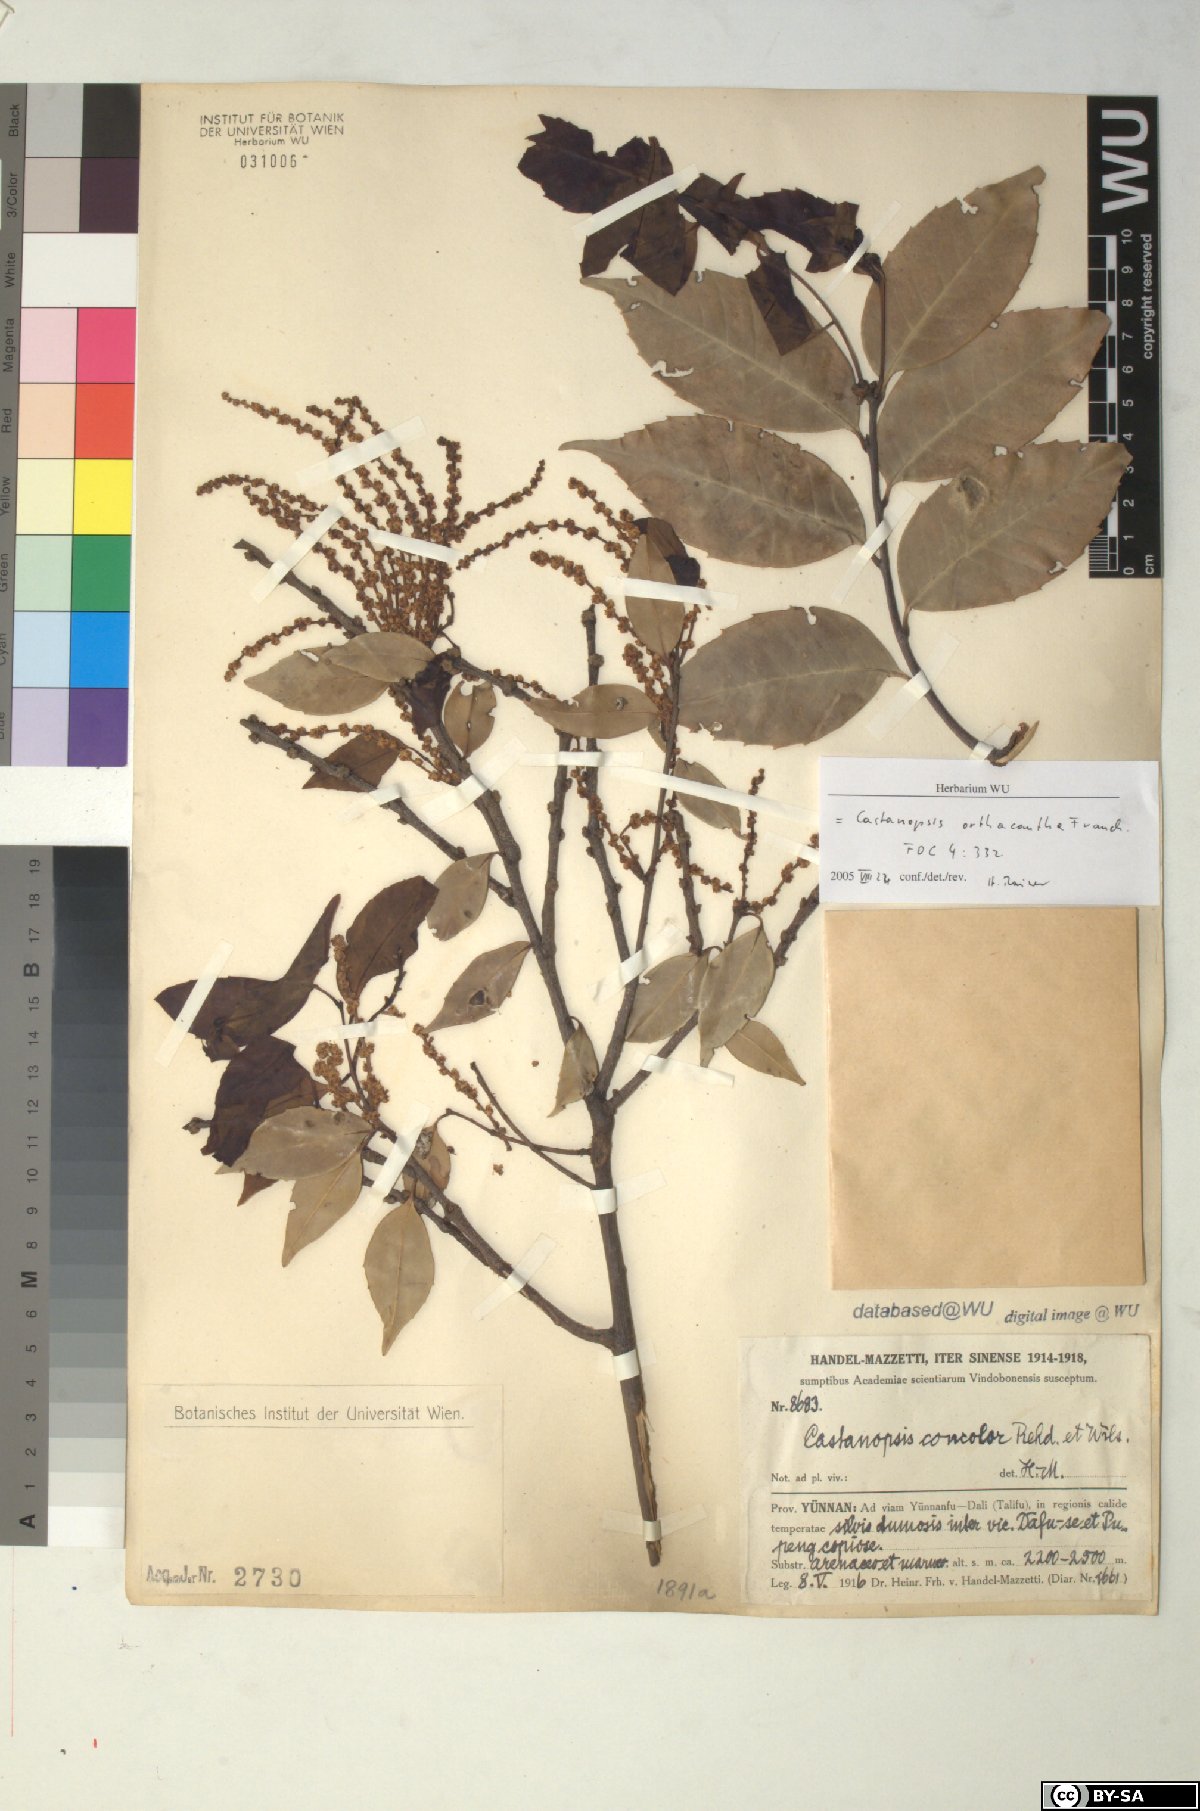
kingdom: Plantae
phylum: Tracheophyta
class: Magnoliopsida
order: Fagales
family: Fagaceae
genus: Castanopsis
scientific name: Castanopsis orthacantha
